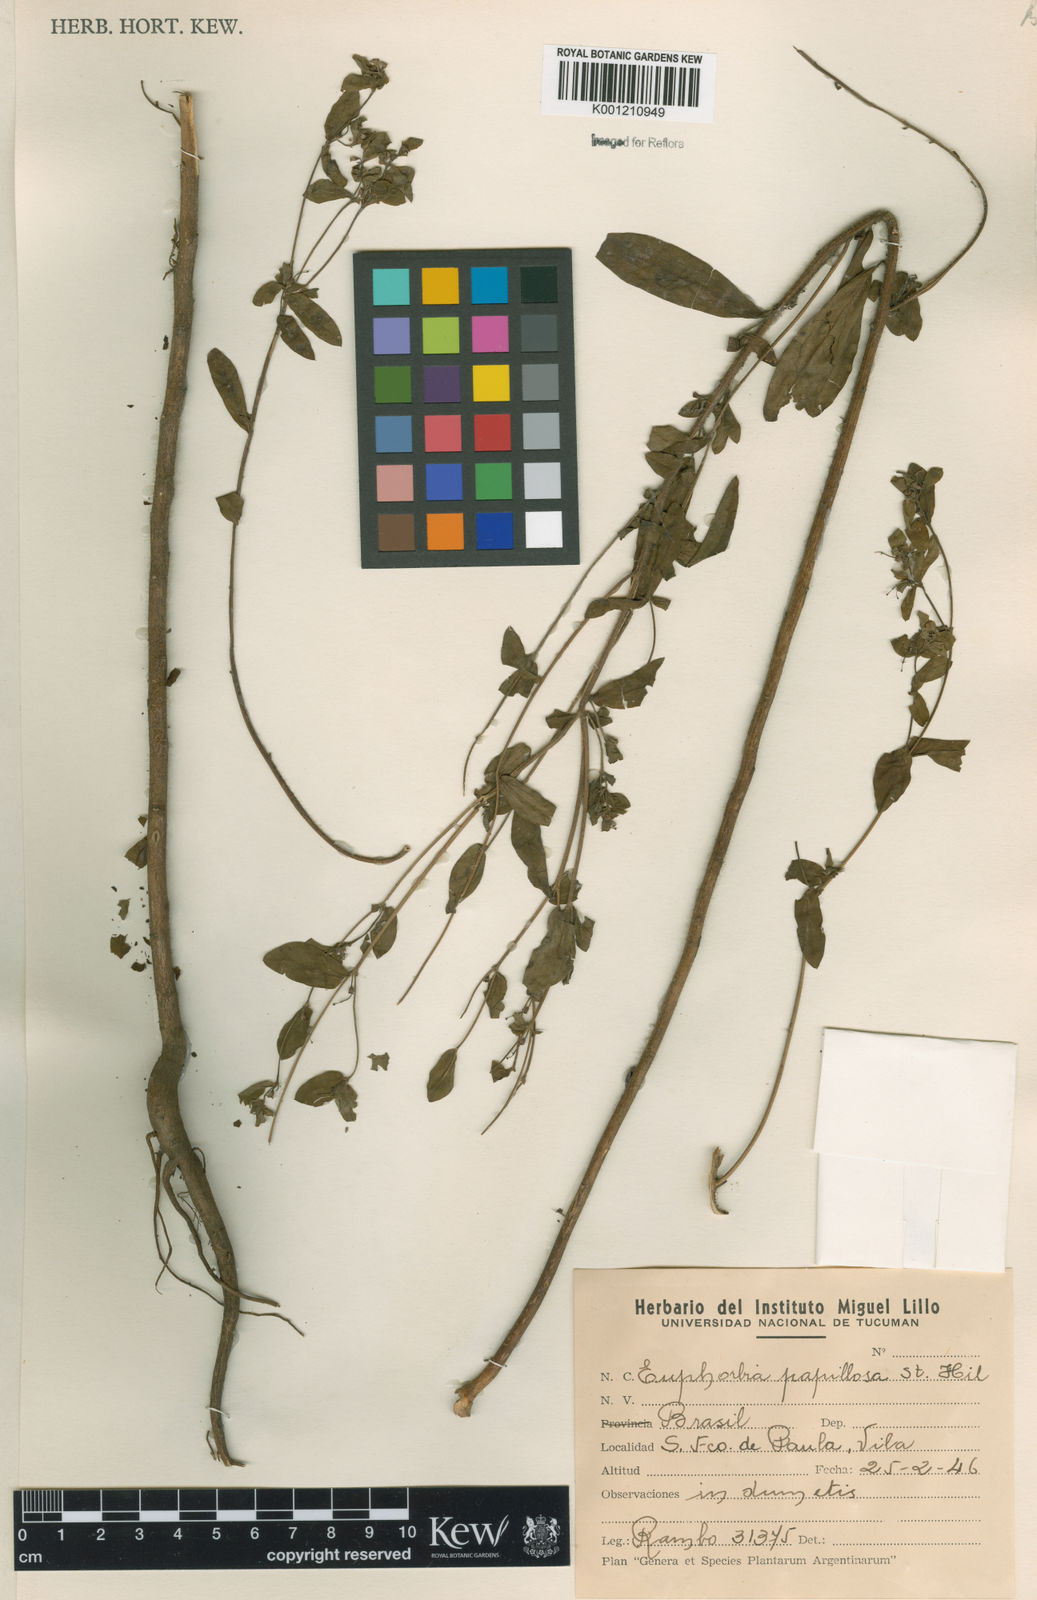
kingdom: Plantae
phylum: Tracheophyta
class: Magnoliopsida
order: Malpighiales
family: Euphorbiaceae
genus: Euphorbia
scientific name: Euphorbia papillosa
